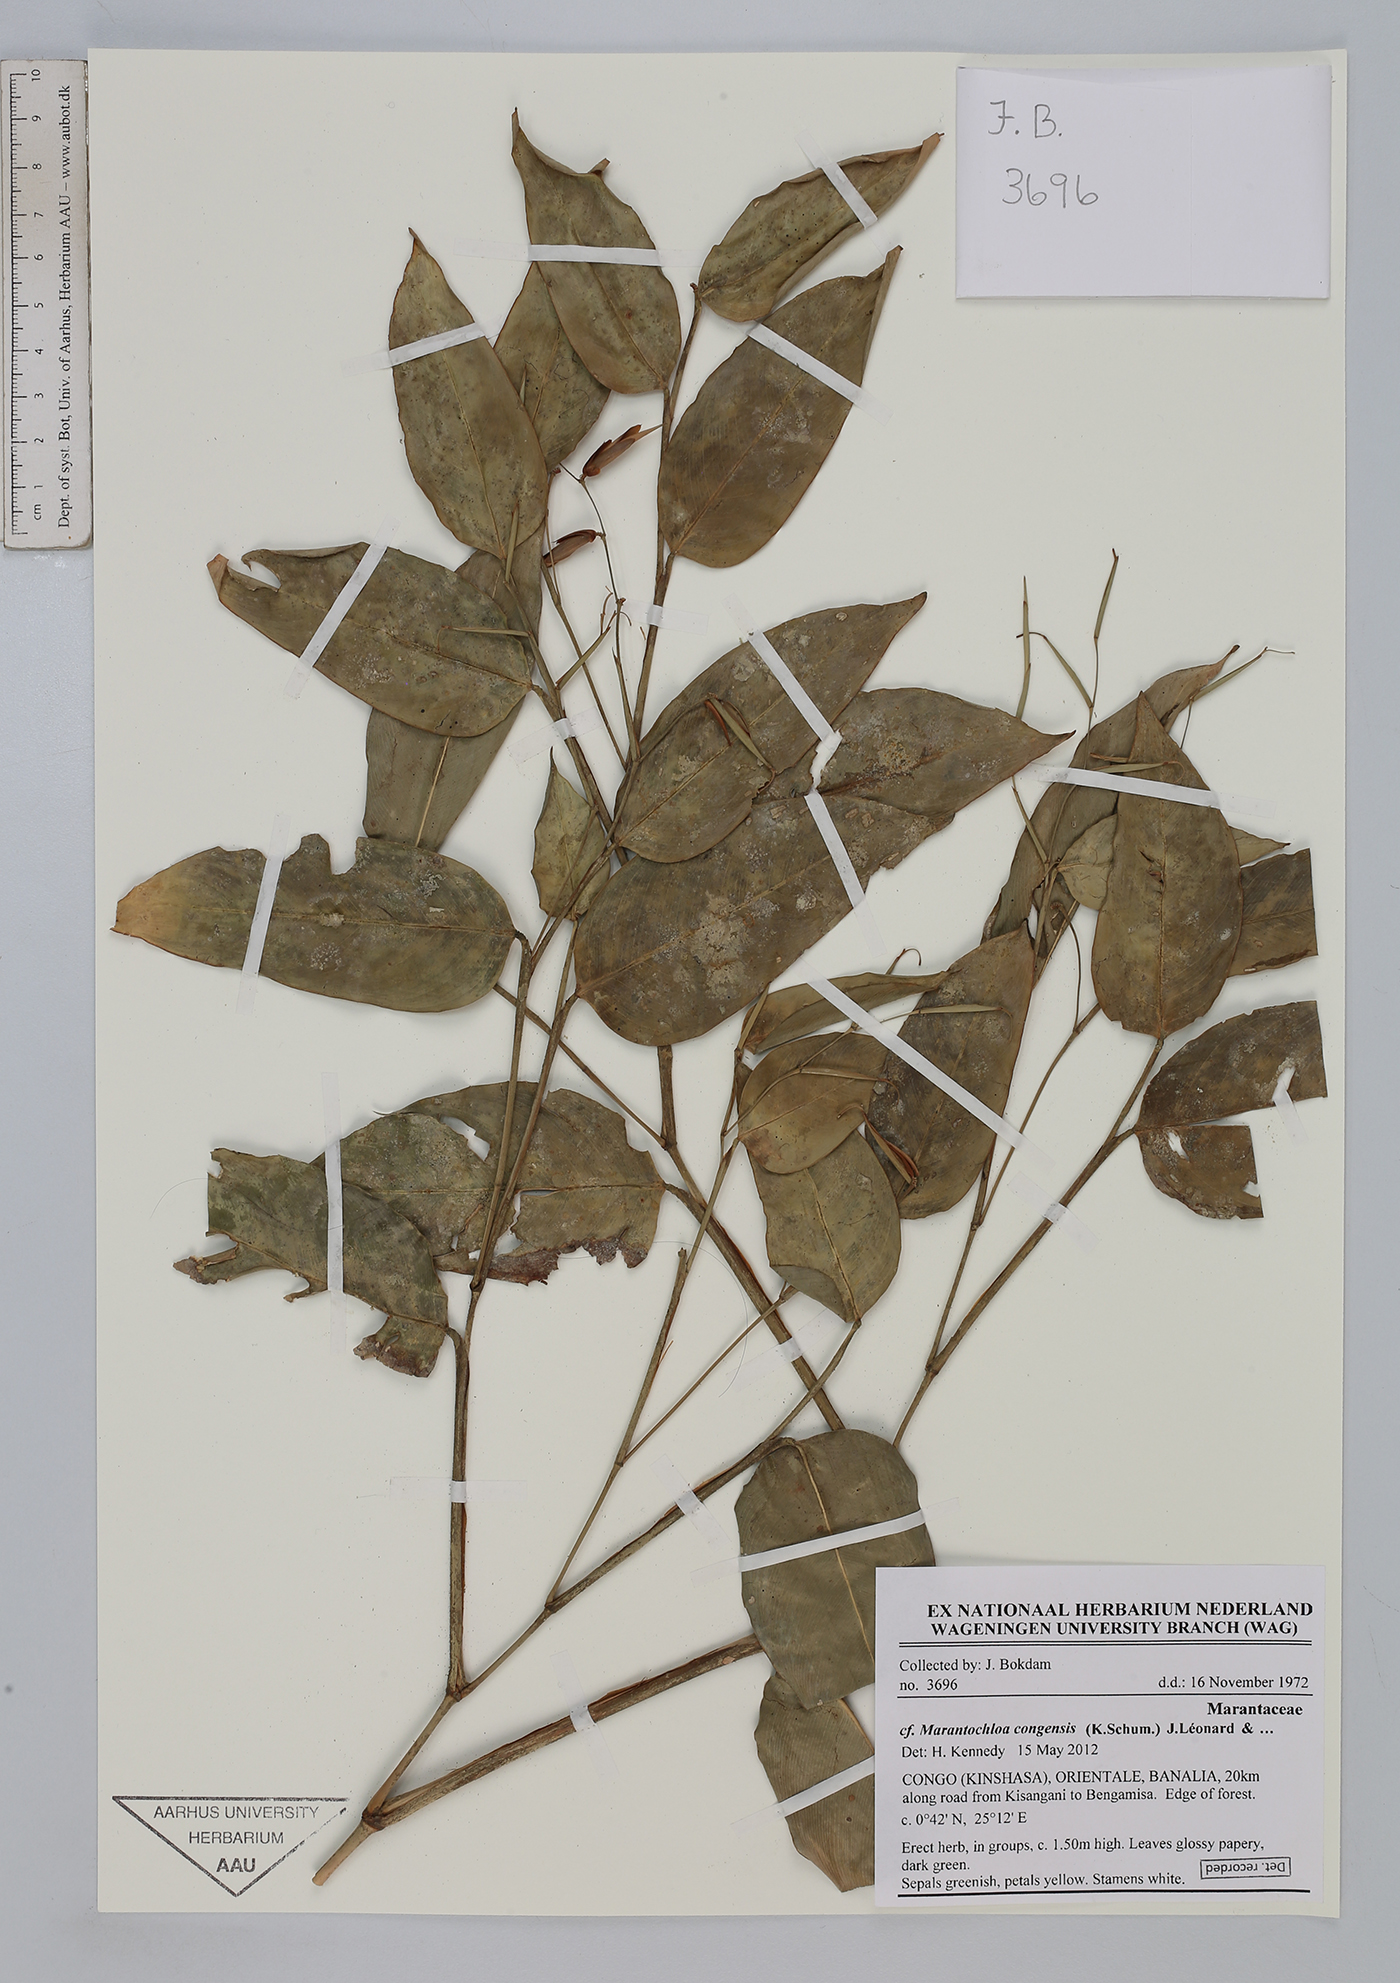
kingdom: Plantae
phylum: Tracheophyta
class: Liliopsida
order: Zingiberales
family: Marantaceae
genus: Marantochloa
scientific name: Marantochloa congensis
